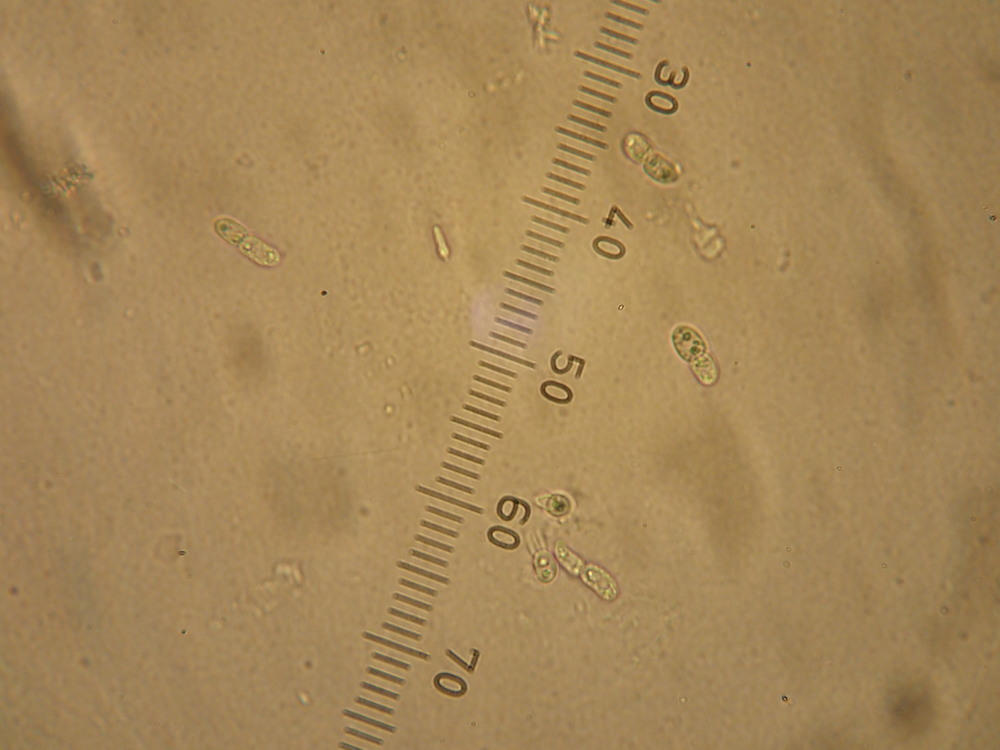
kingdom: Fungi
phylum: Ascomycota
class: Leotiomycetes
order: Helotiales
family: Drepanopezizaceae
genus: Diplocarpon
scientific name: Diplocarpon rosae
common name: Rose black-spot
